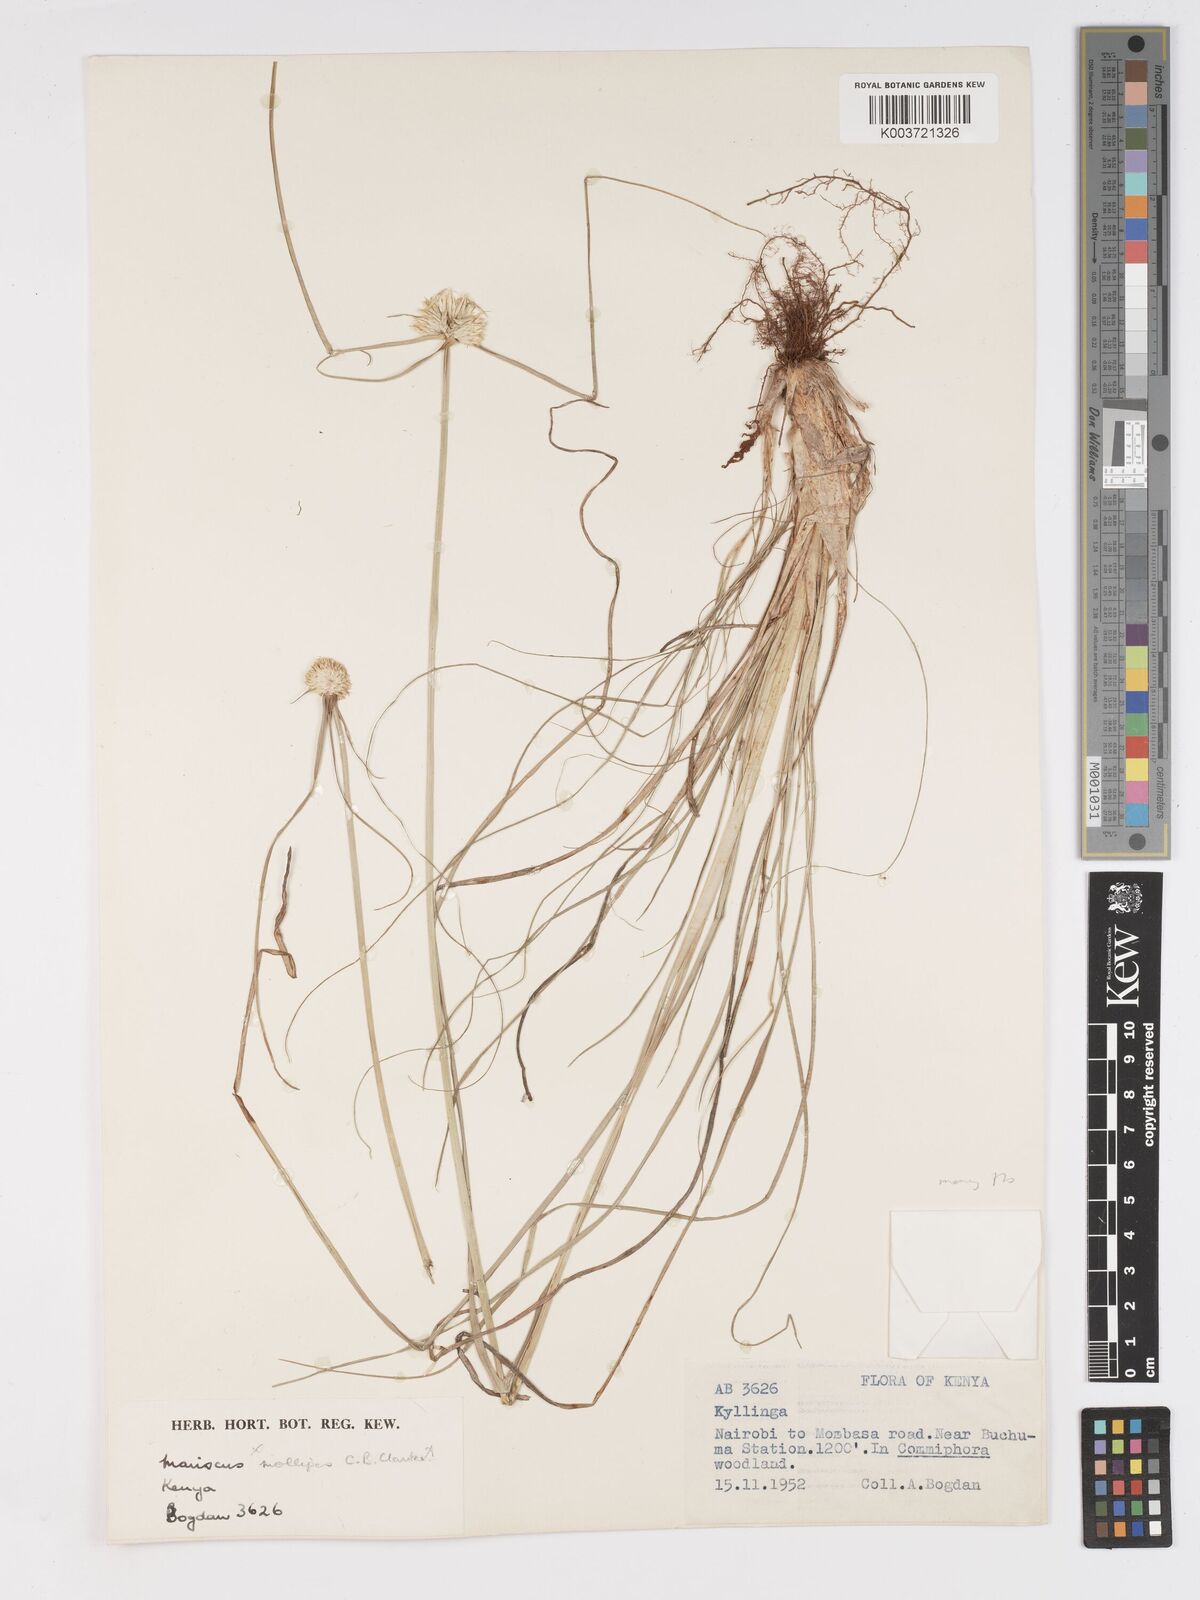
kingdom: Plantae
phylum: Tracheophyta
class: Liliopsida
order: Poales
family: Cyperaceae
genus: Cyperus
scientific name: Cyperus mollipes
